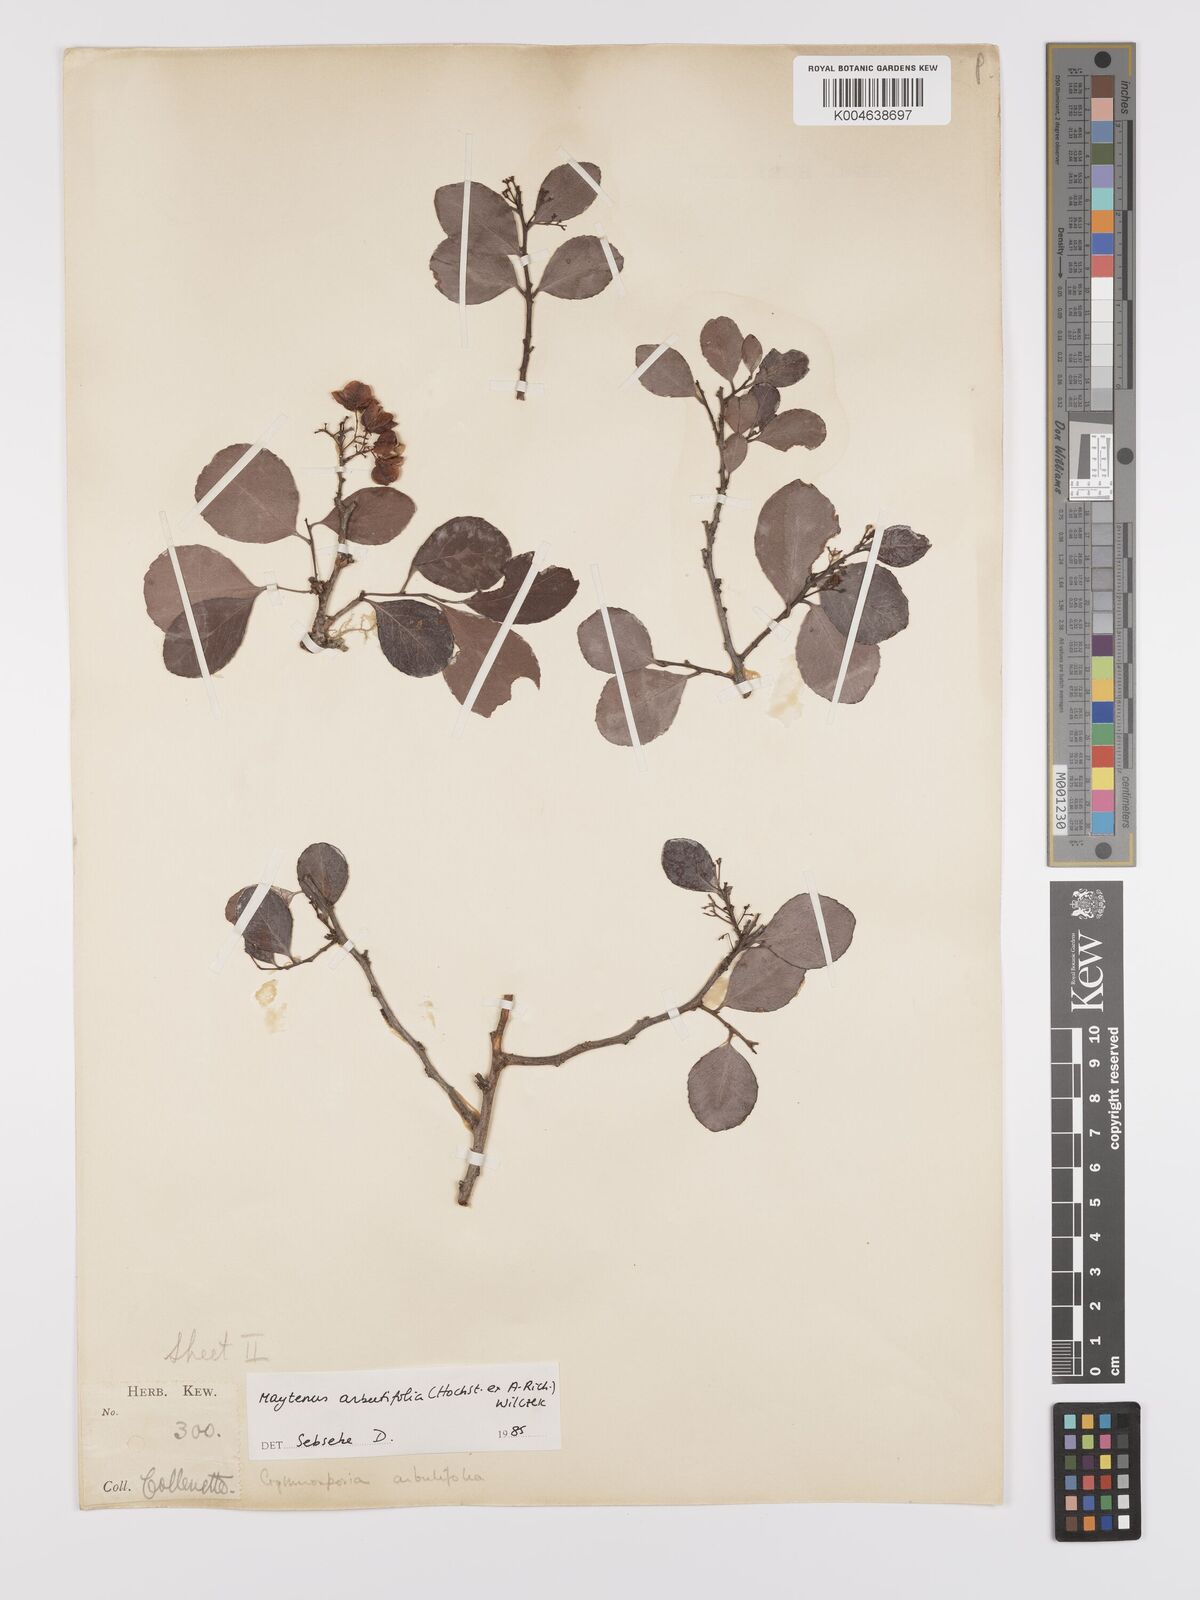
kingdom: Plantae
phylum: Tracheophyta
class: Magnoliopsida
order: Celastrales
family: Celastraceae
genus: Gymnosporia
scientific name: Gymnosporia arbutifolia
